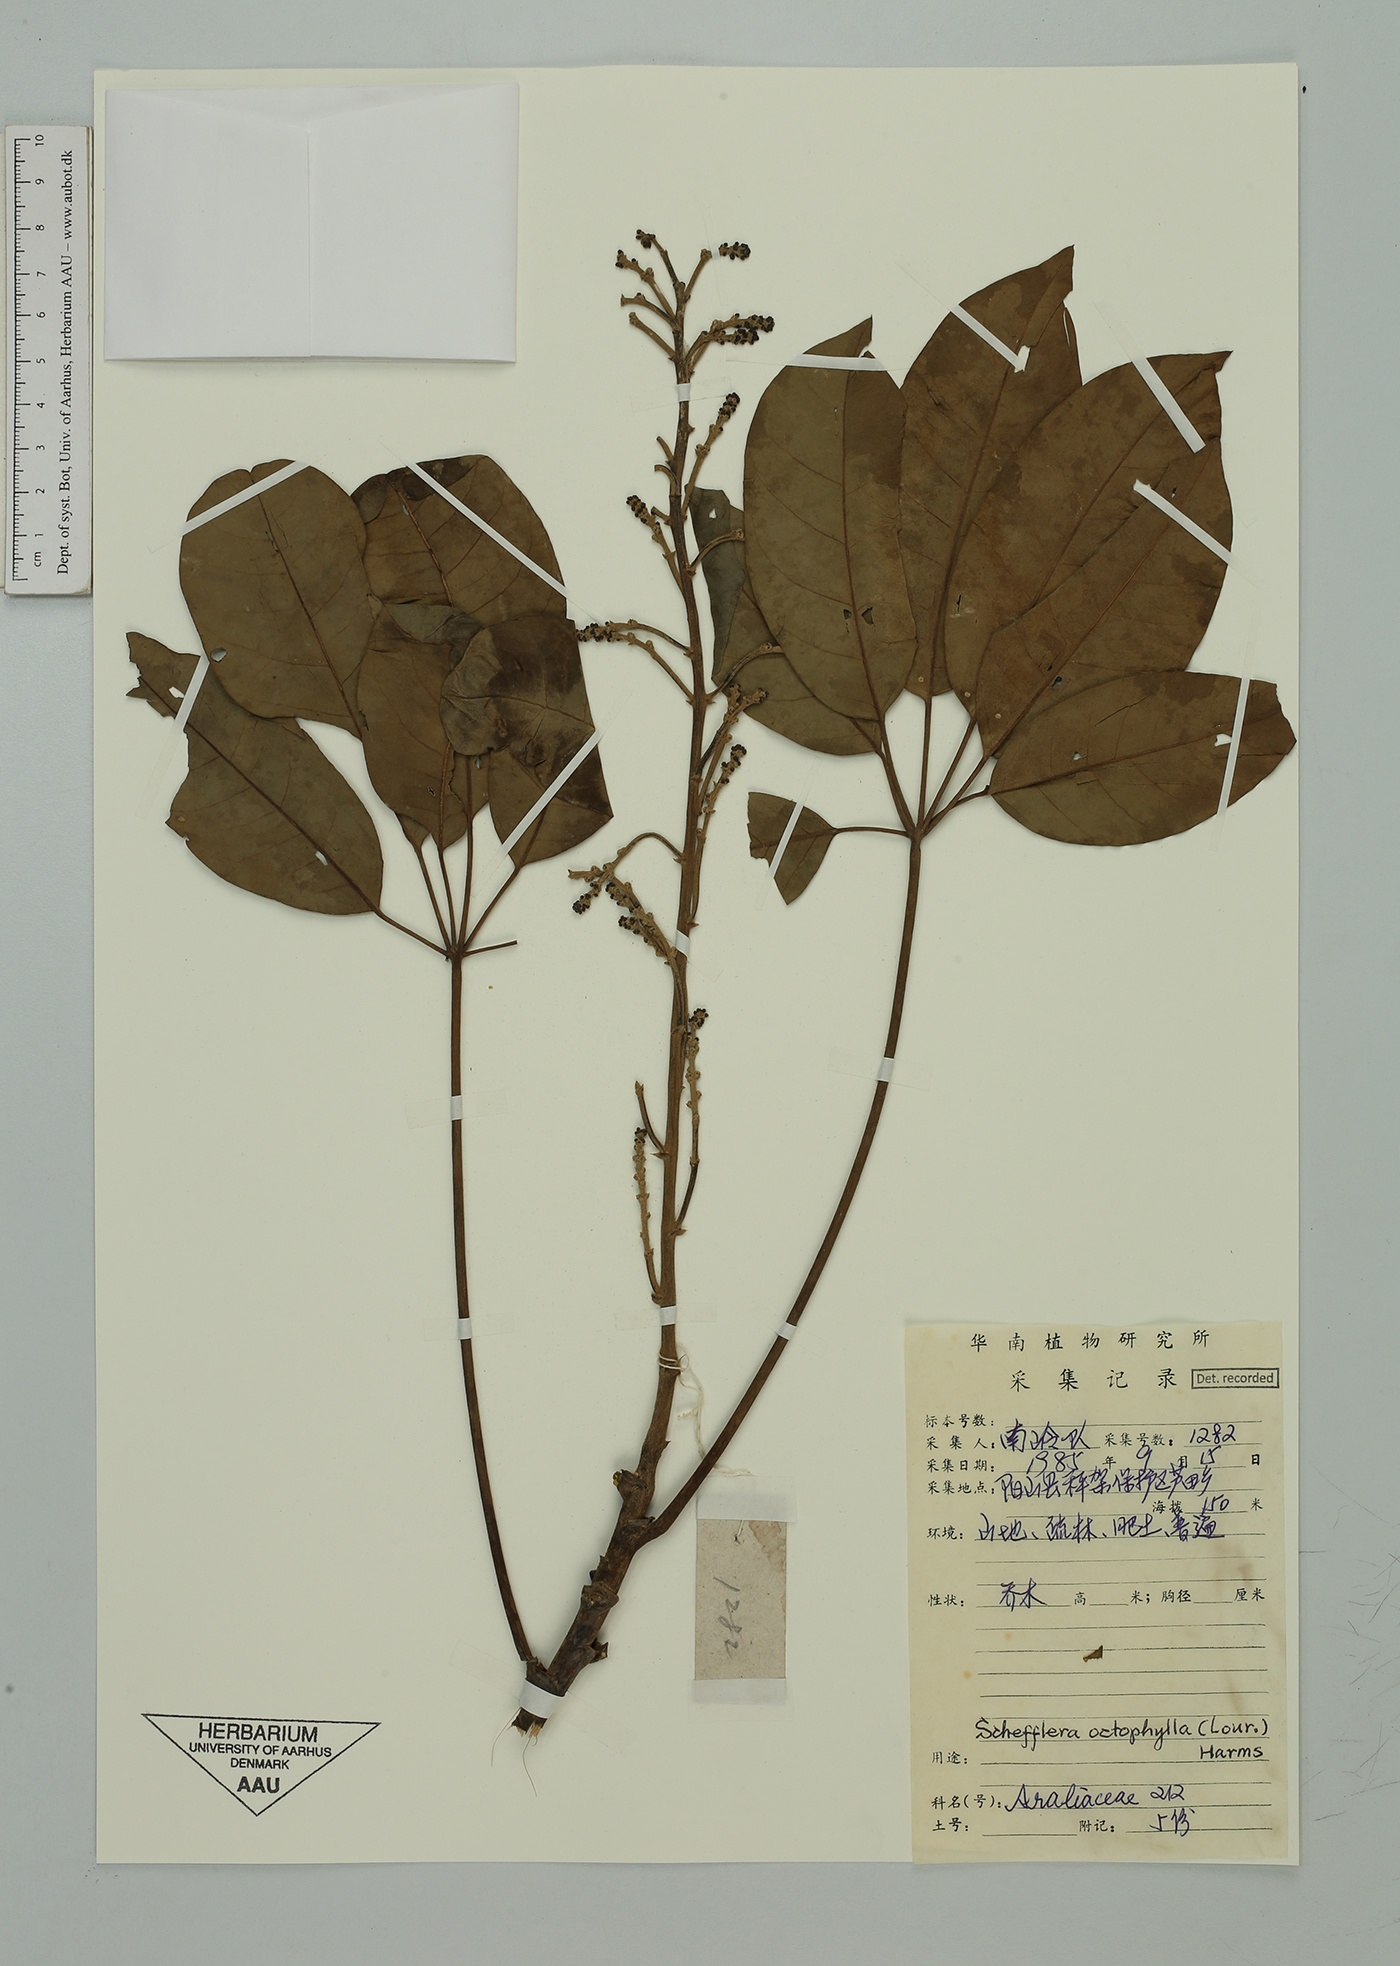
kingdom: Plantae
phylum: Tracheophyta
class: Magnoliopsida
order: Apiales
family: Araliaceae
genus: Heptapleurum
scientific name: Heptapleurum oxyphyllum
